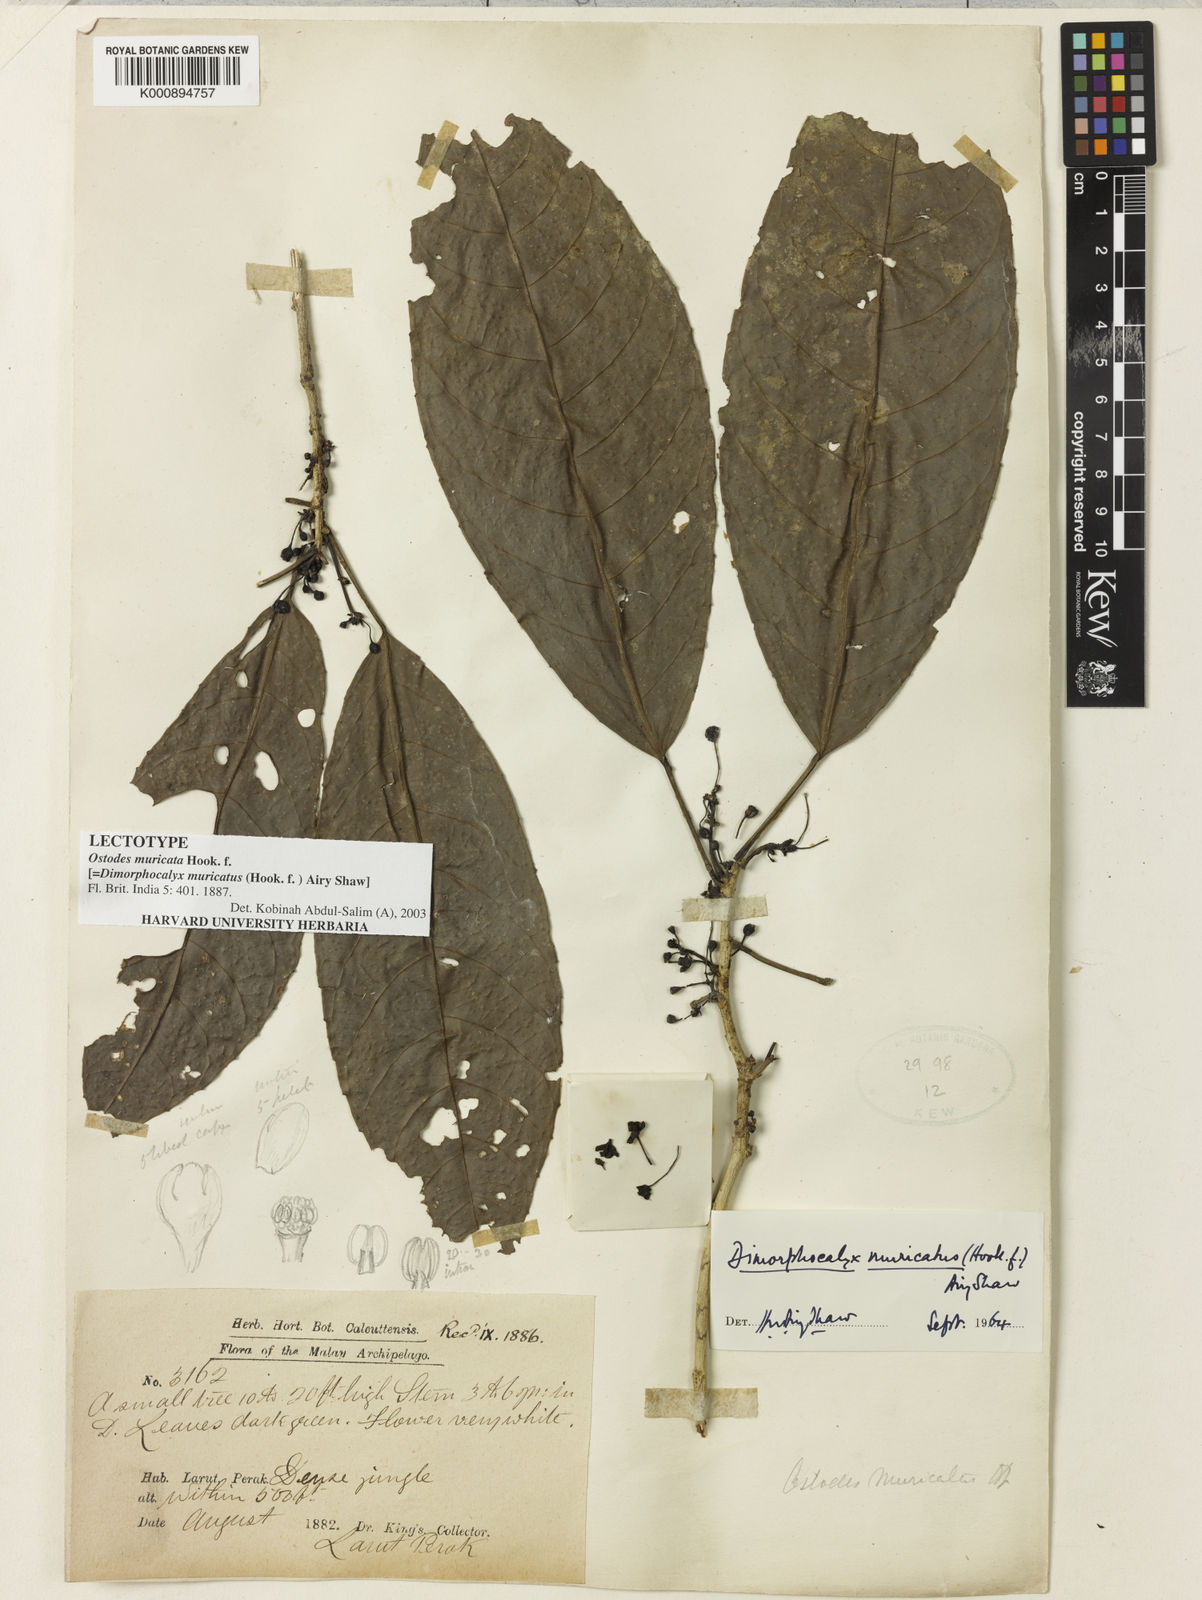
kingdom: Plantae
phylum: Tracheophyta
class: Magnoliopsida
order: Malpighiales
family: Euphorbiaceae
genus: Tritaxis
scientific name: Tritaxis muricata
